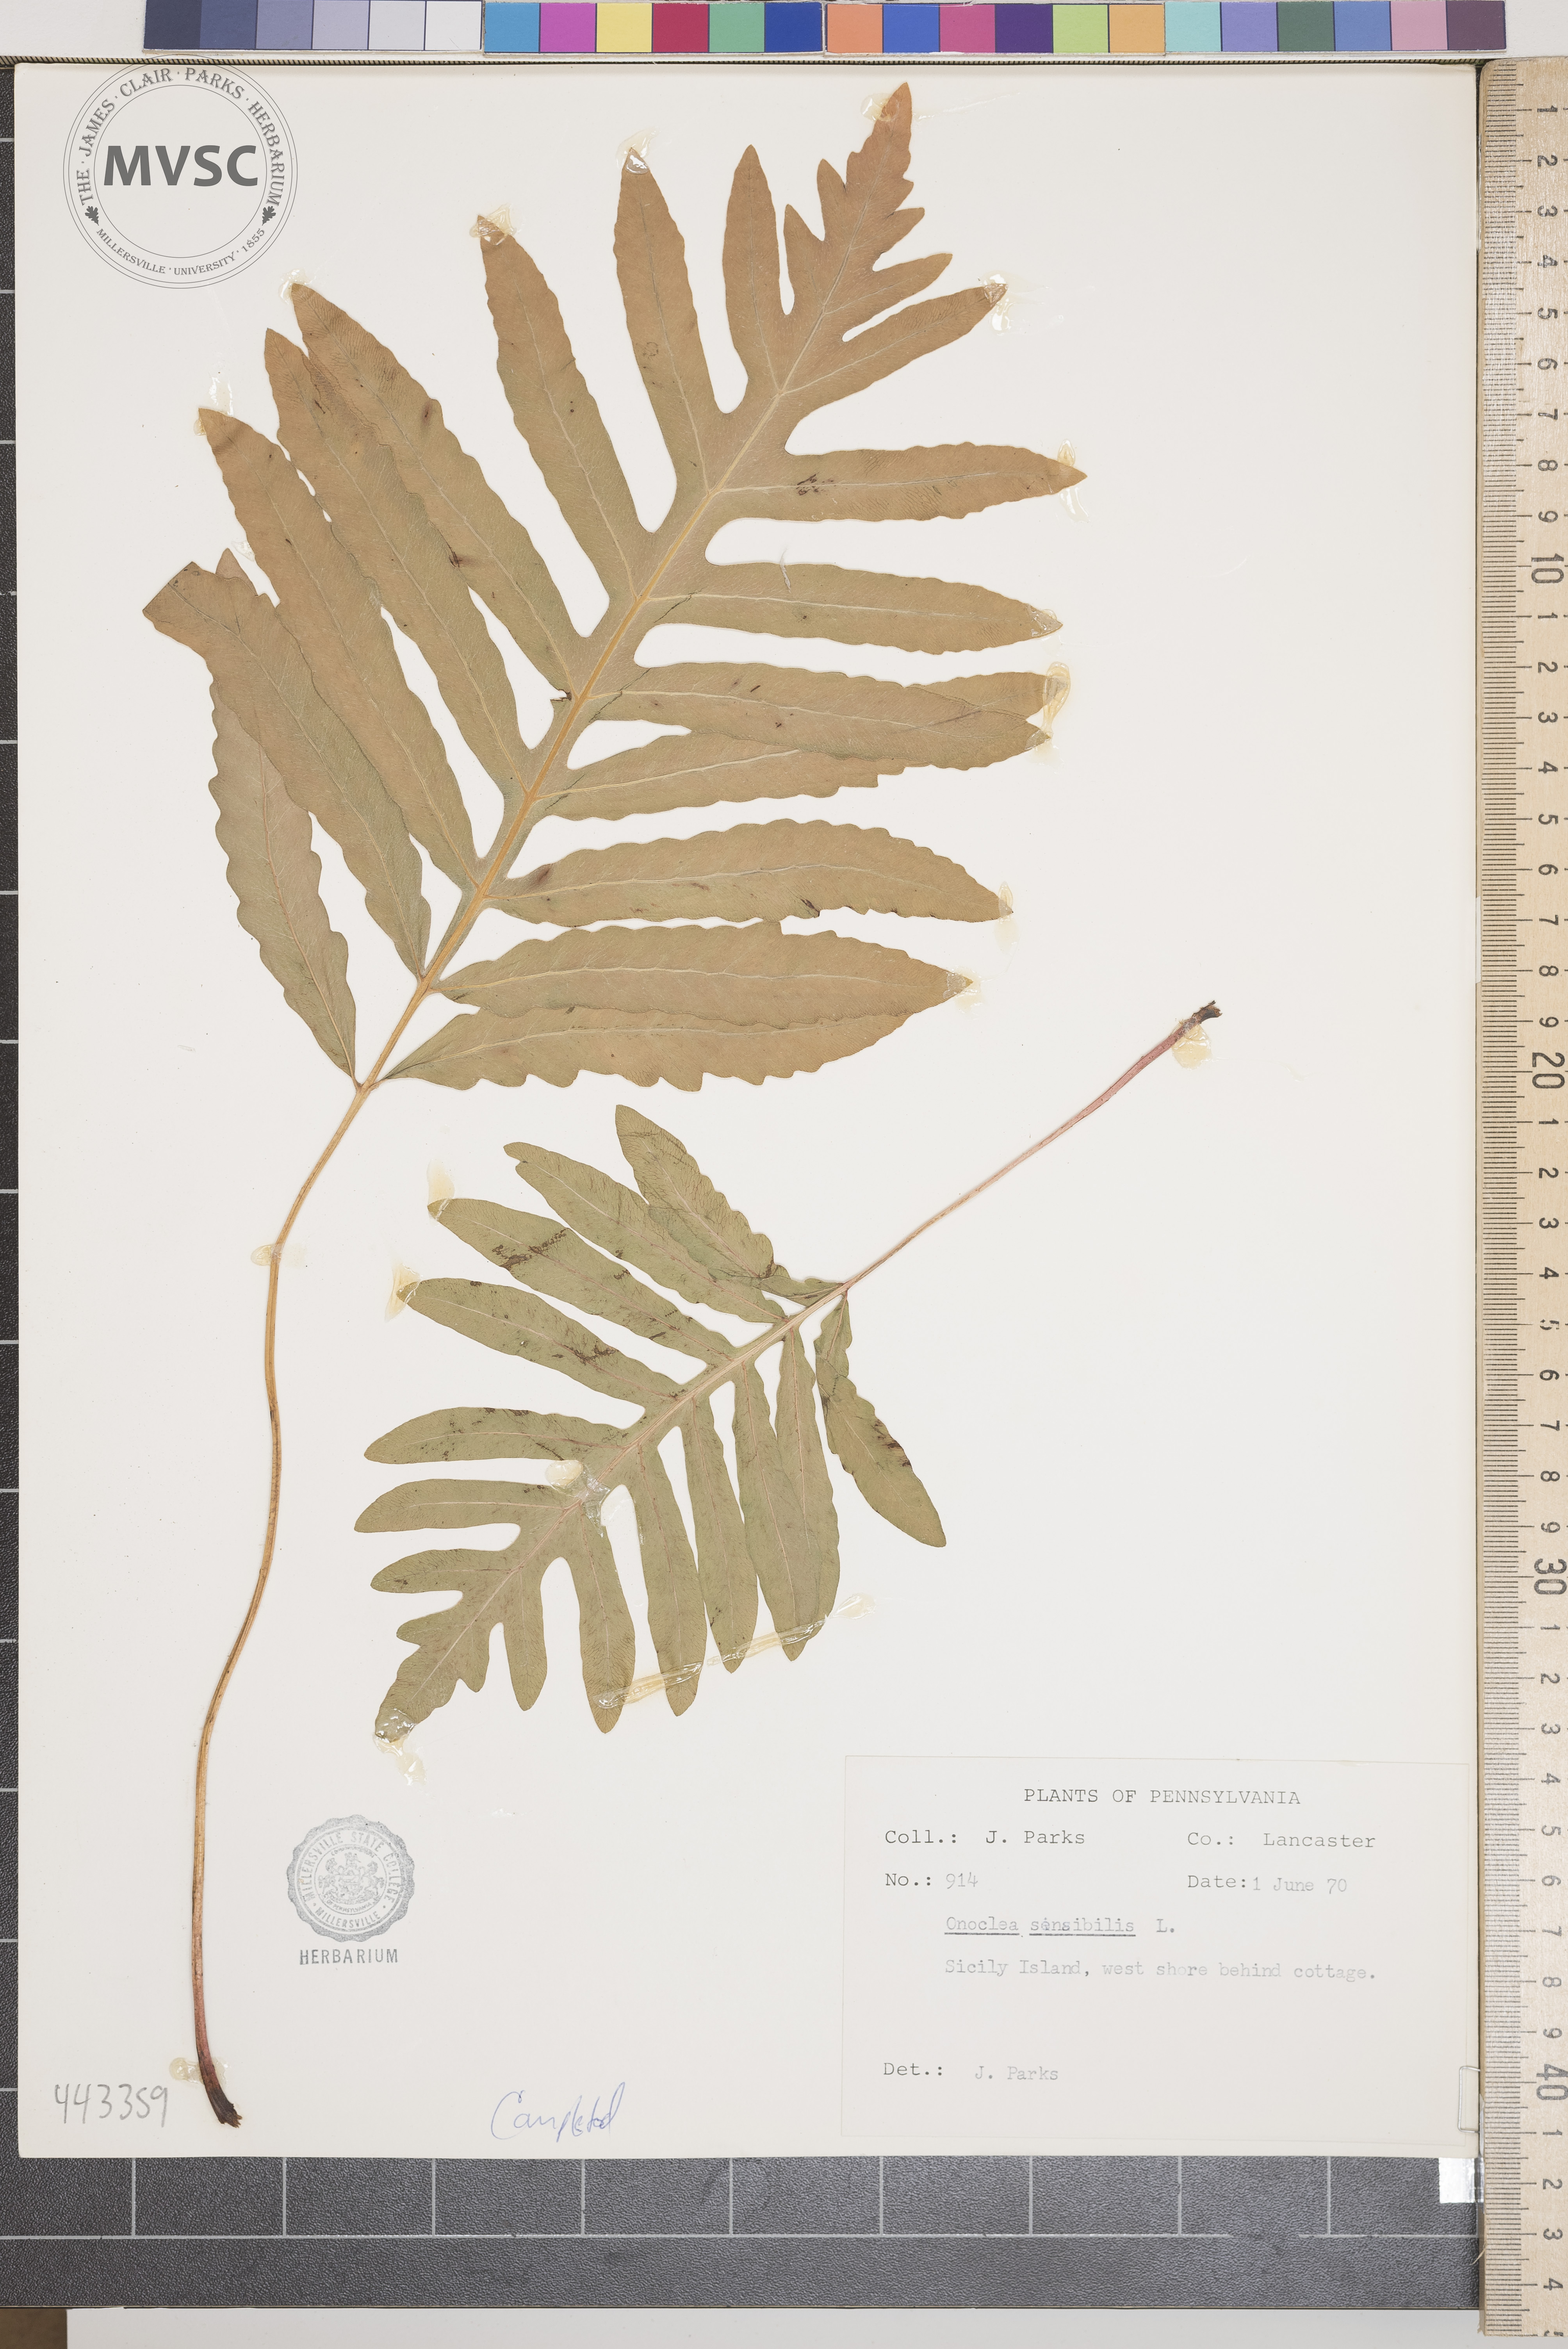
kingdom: Plantae
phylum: Tracheophyta
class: Polypodiopsida
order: Polypodiales
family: Onocleaceae
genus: Onoclea
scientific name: Onoclea sensibilis
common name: Sensitive fern
